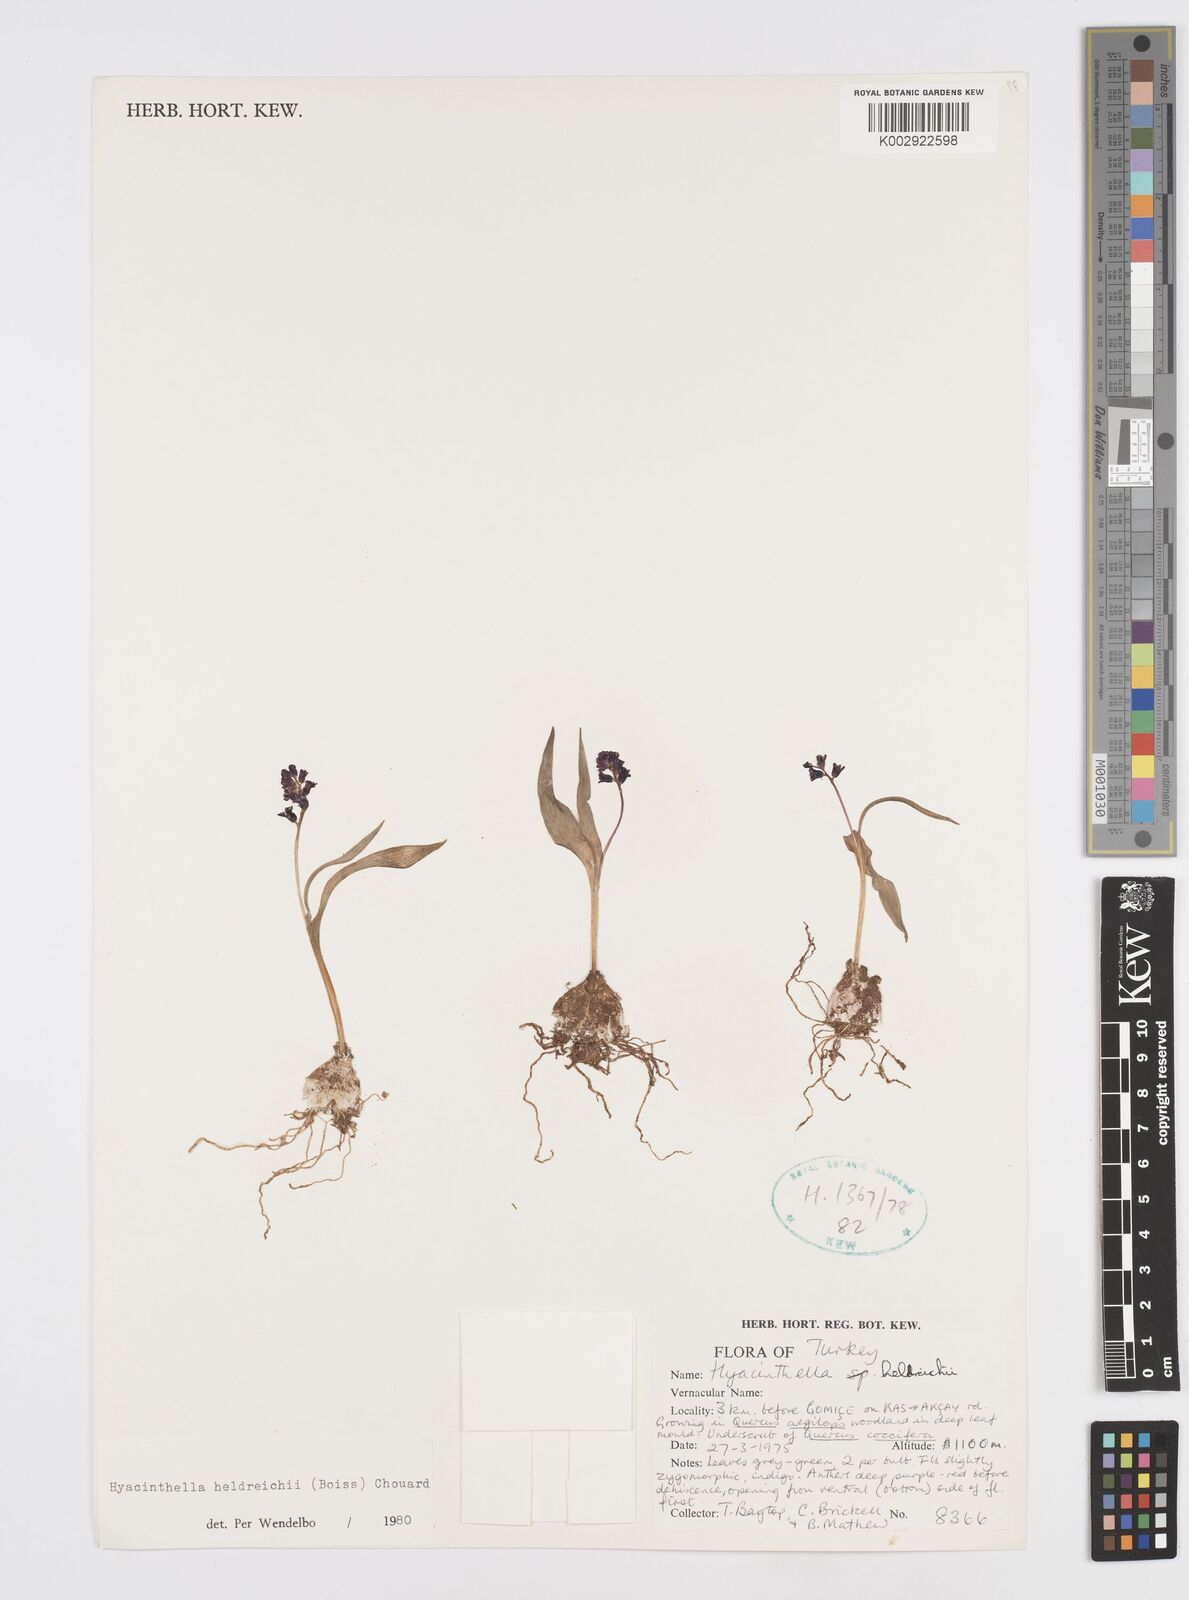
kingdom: Plantae
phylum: Tracheophyta
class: Liliopsida
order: Asparagales
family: Asparagaceae
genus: Hyacinthella
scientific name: Hyacinthella heldreichii
